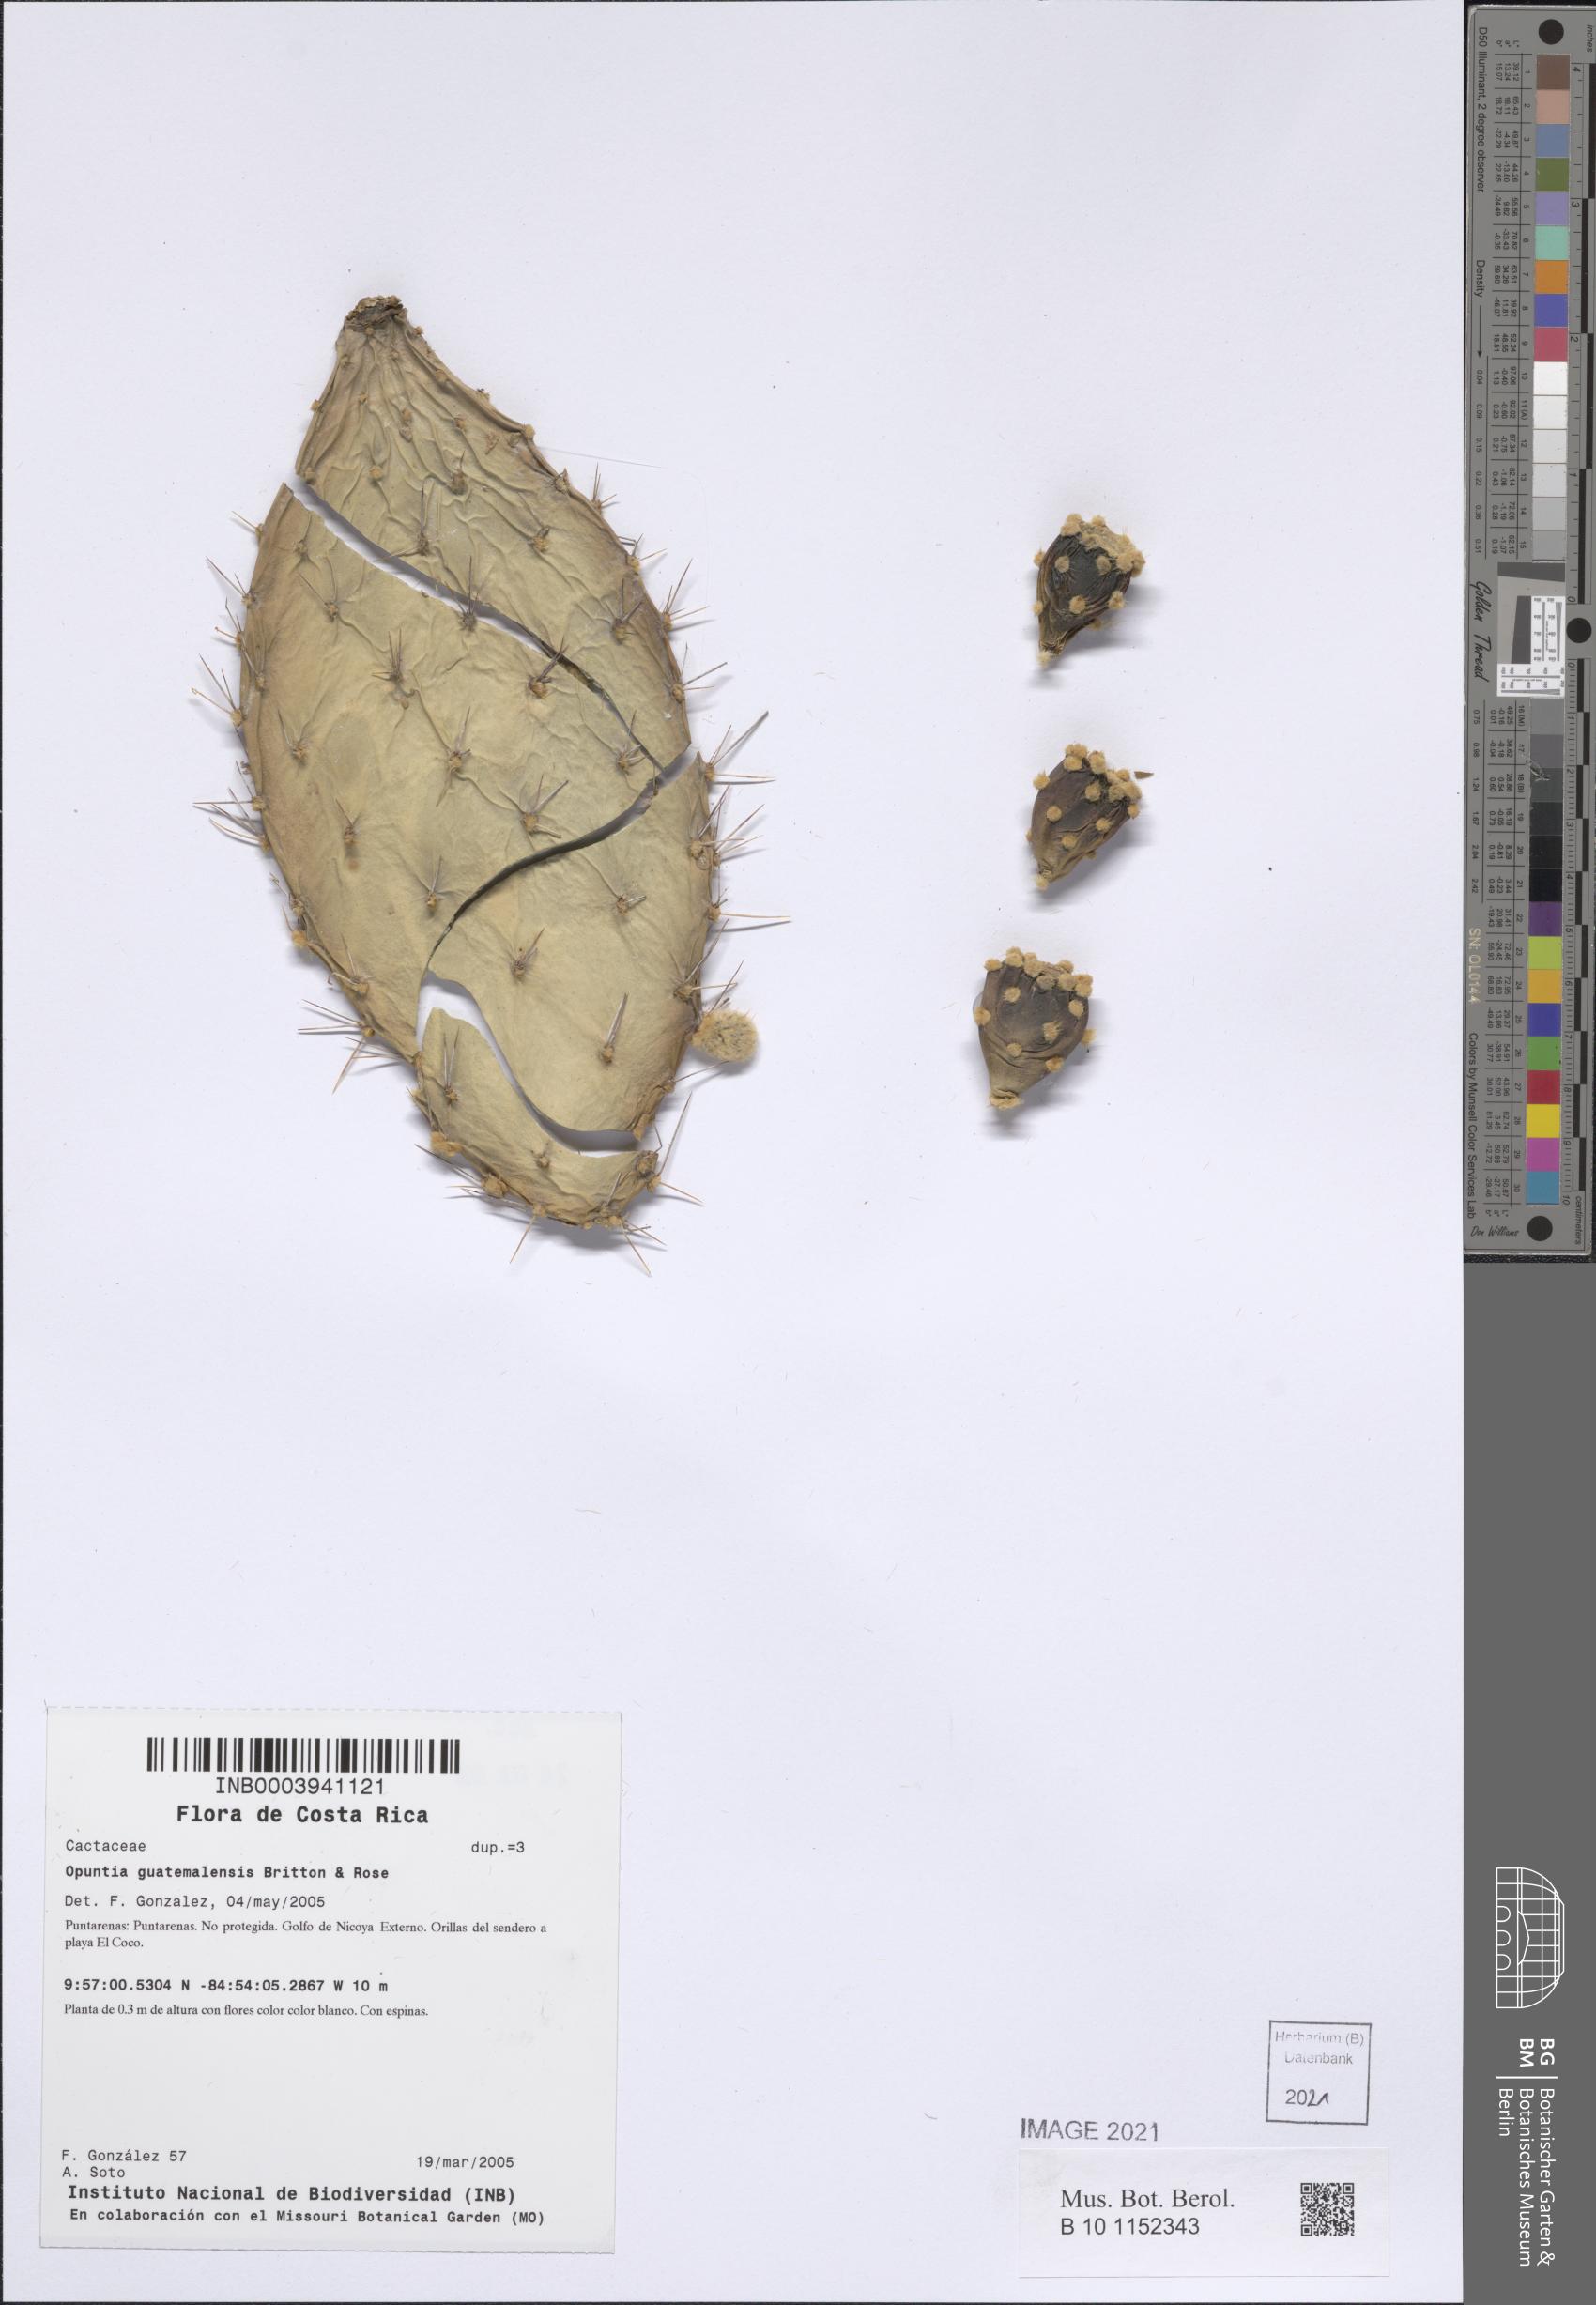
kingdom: Plantae
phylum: Tracheophyta
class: Magnoliopsida
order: Caryophyllales
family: Cactaceae
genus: Opuntia
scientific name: Opuntia auberi
